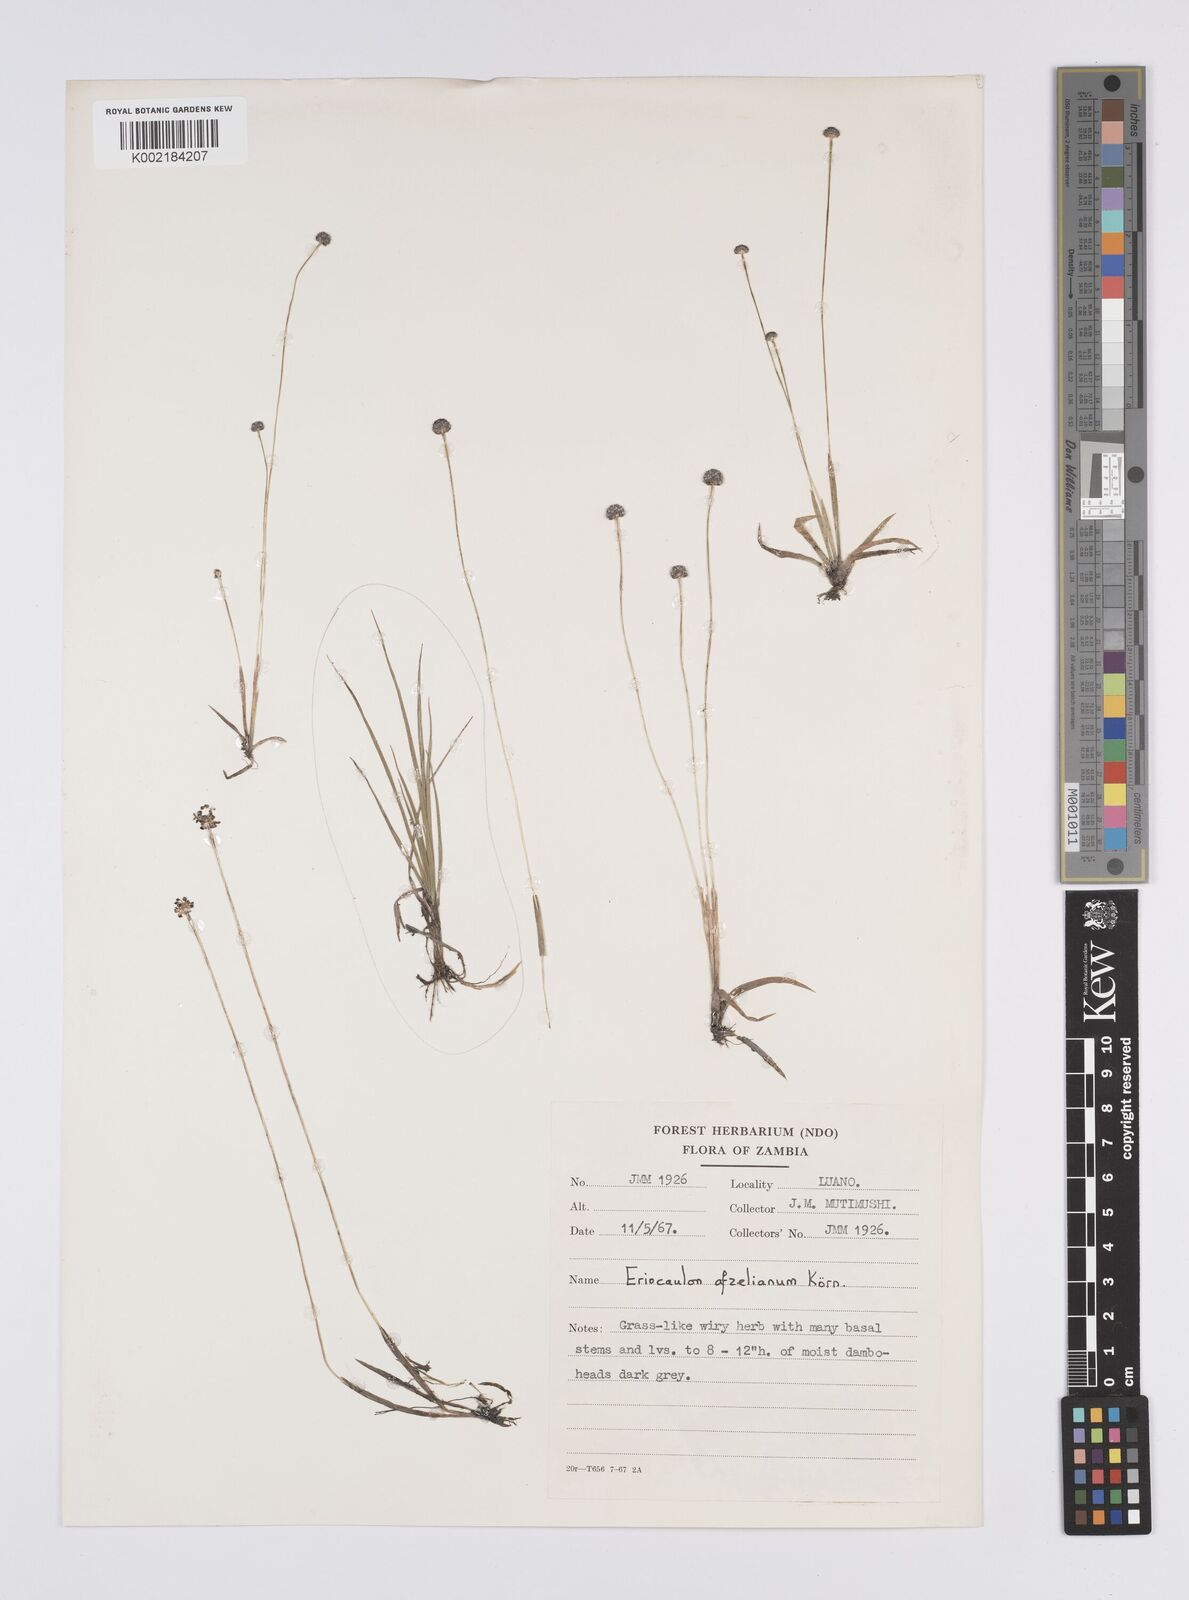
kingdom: Plantae
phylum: Tracheophyta
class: Liliopsida
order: Poales
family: Eriocaulaceae
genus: Eriocaulon
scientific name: Eriocaulon afzelianum
